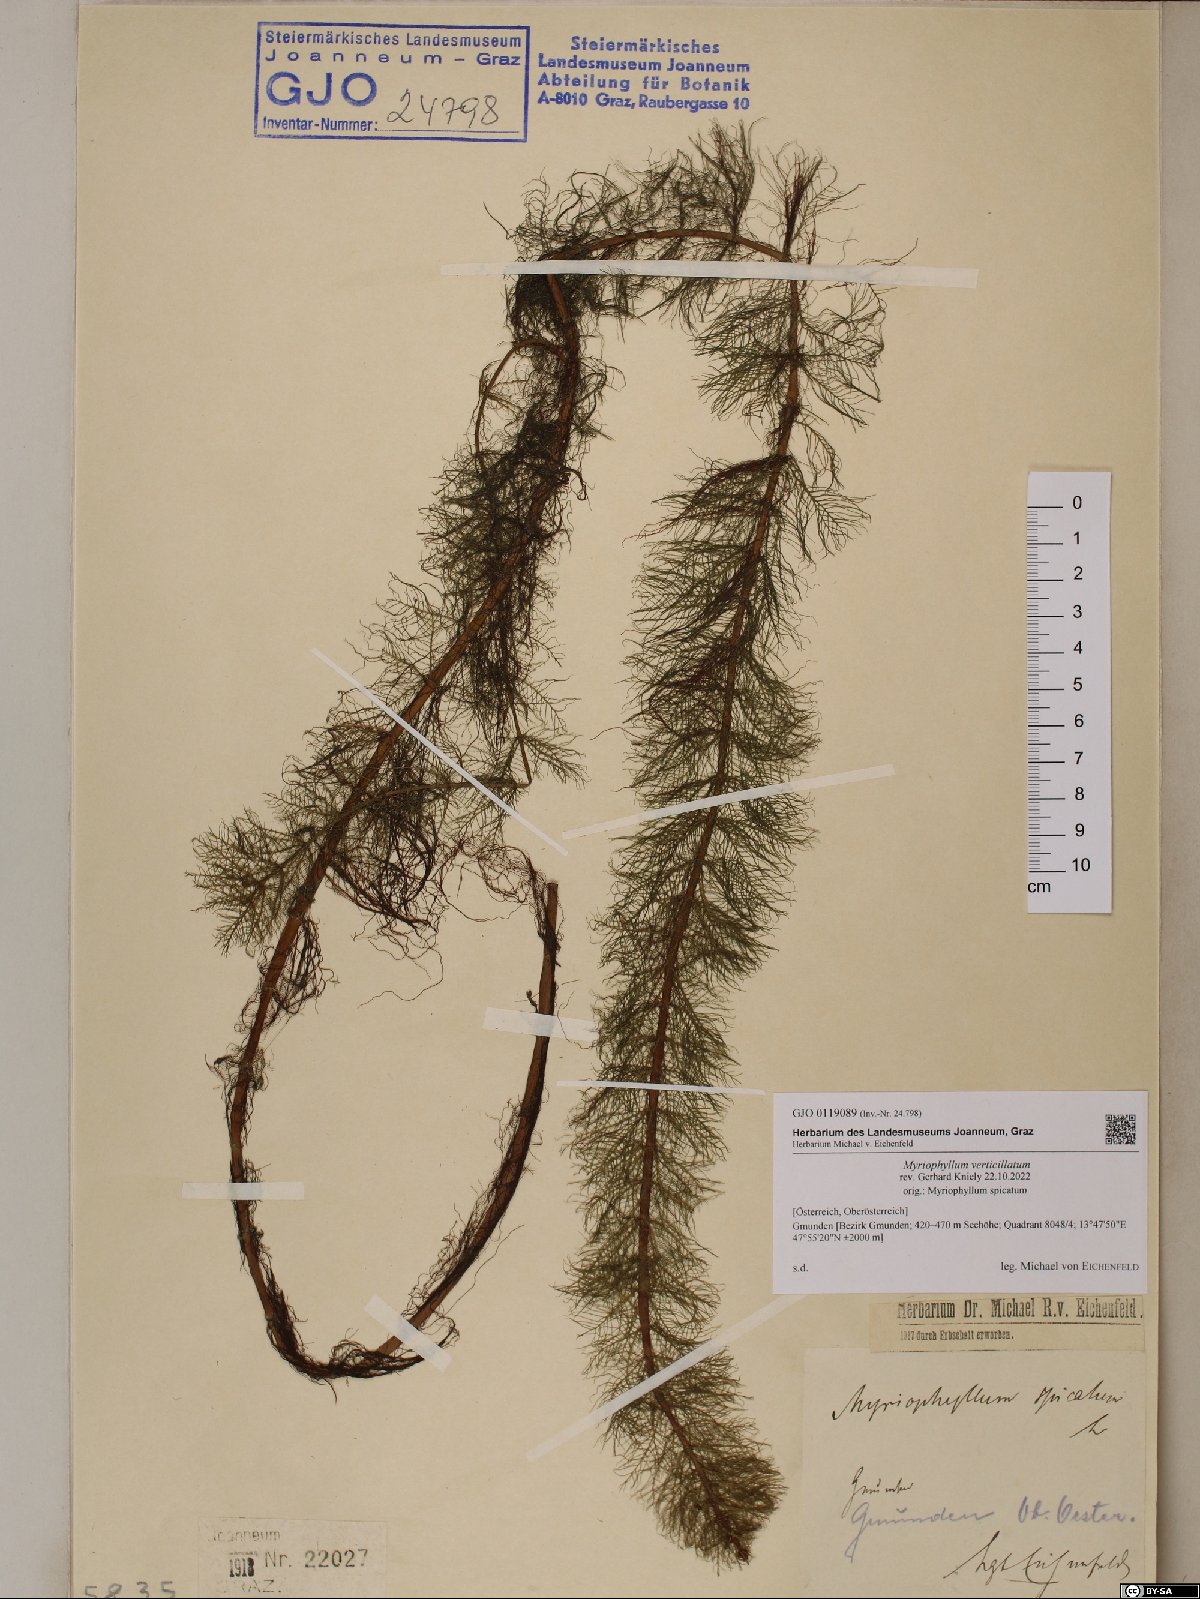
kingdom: Plantae
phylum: Tracheophyta
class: Magnoliopsida
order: Saxifragales
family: Haloragaceae
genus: Myriophyllum
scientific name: Myriophyllum verticillatum
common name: Whorled water-milfoil
